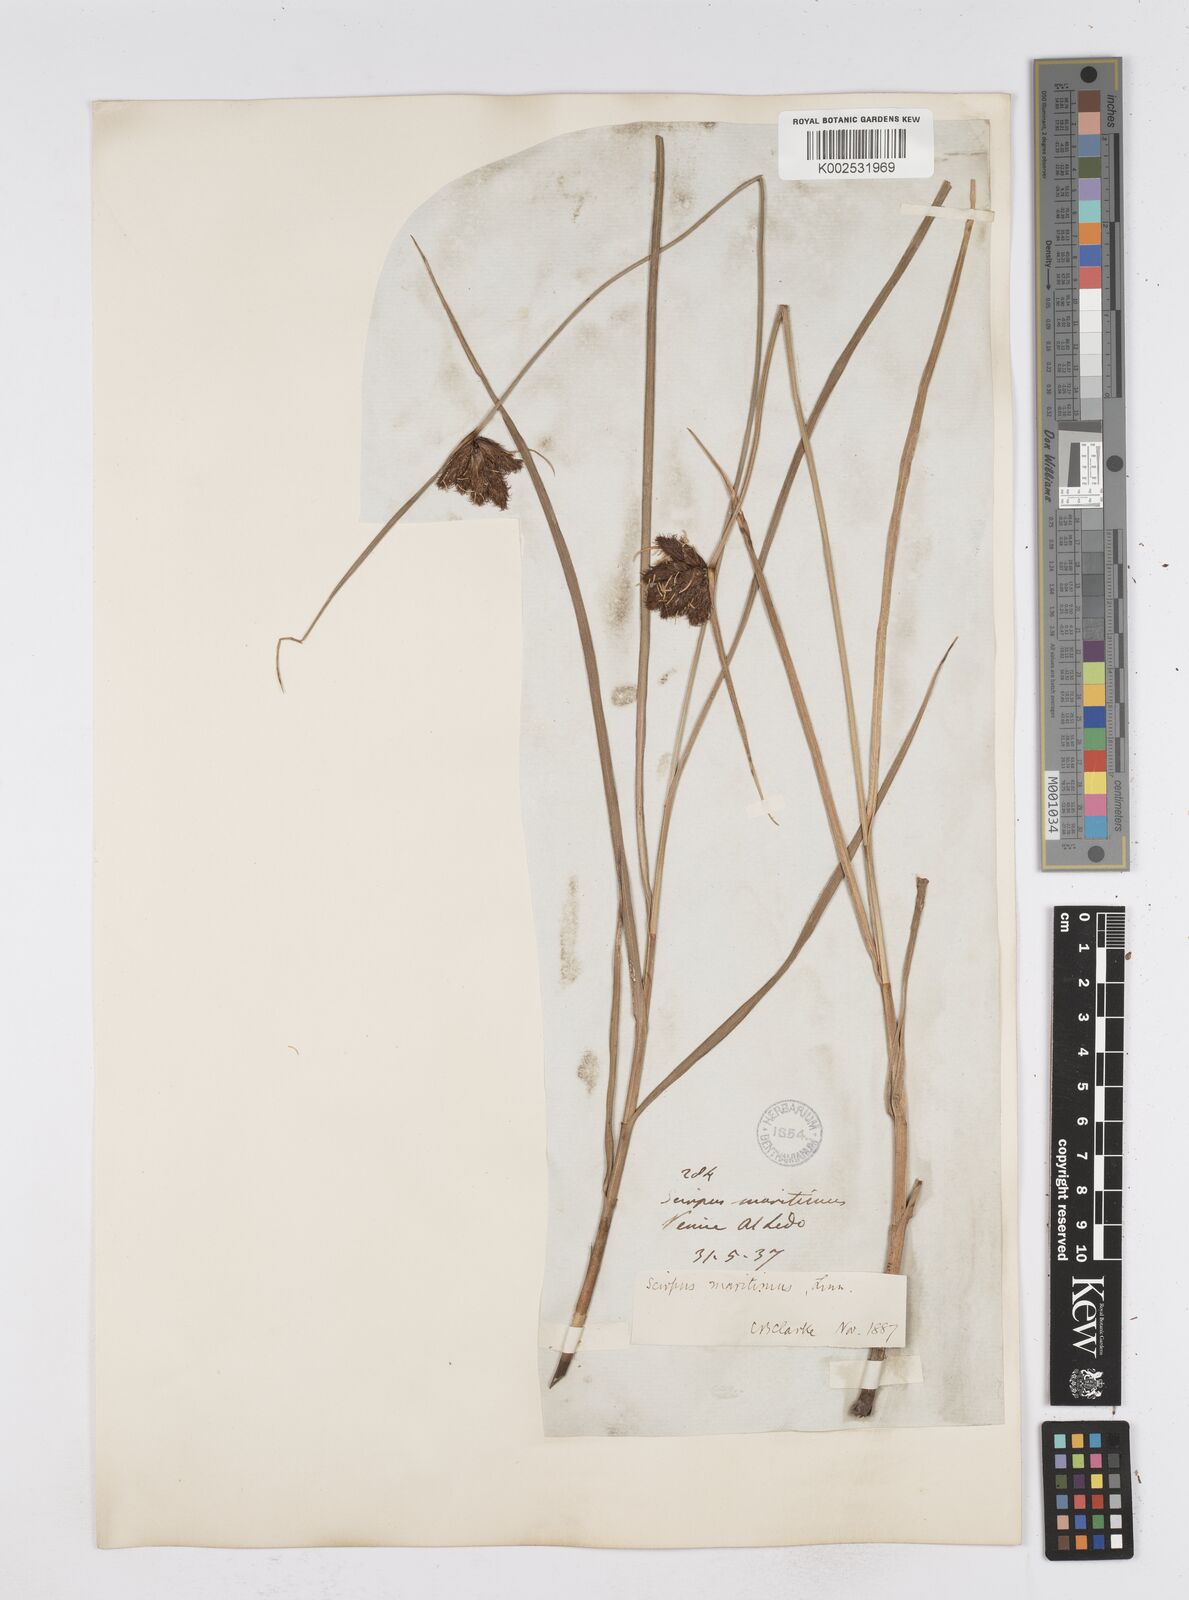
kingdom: Plantae
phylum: Tracheophyta
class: Liliopsida
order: Poales
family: Cyperaceae
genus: Bolboschoenus
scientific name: Bolboschoenus maritimus
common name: Sea club-rush
